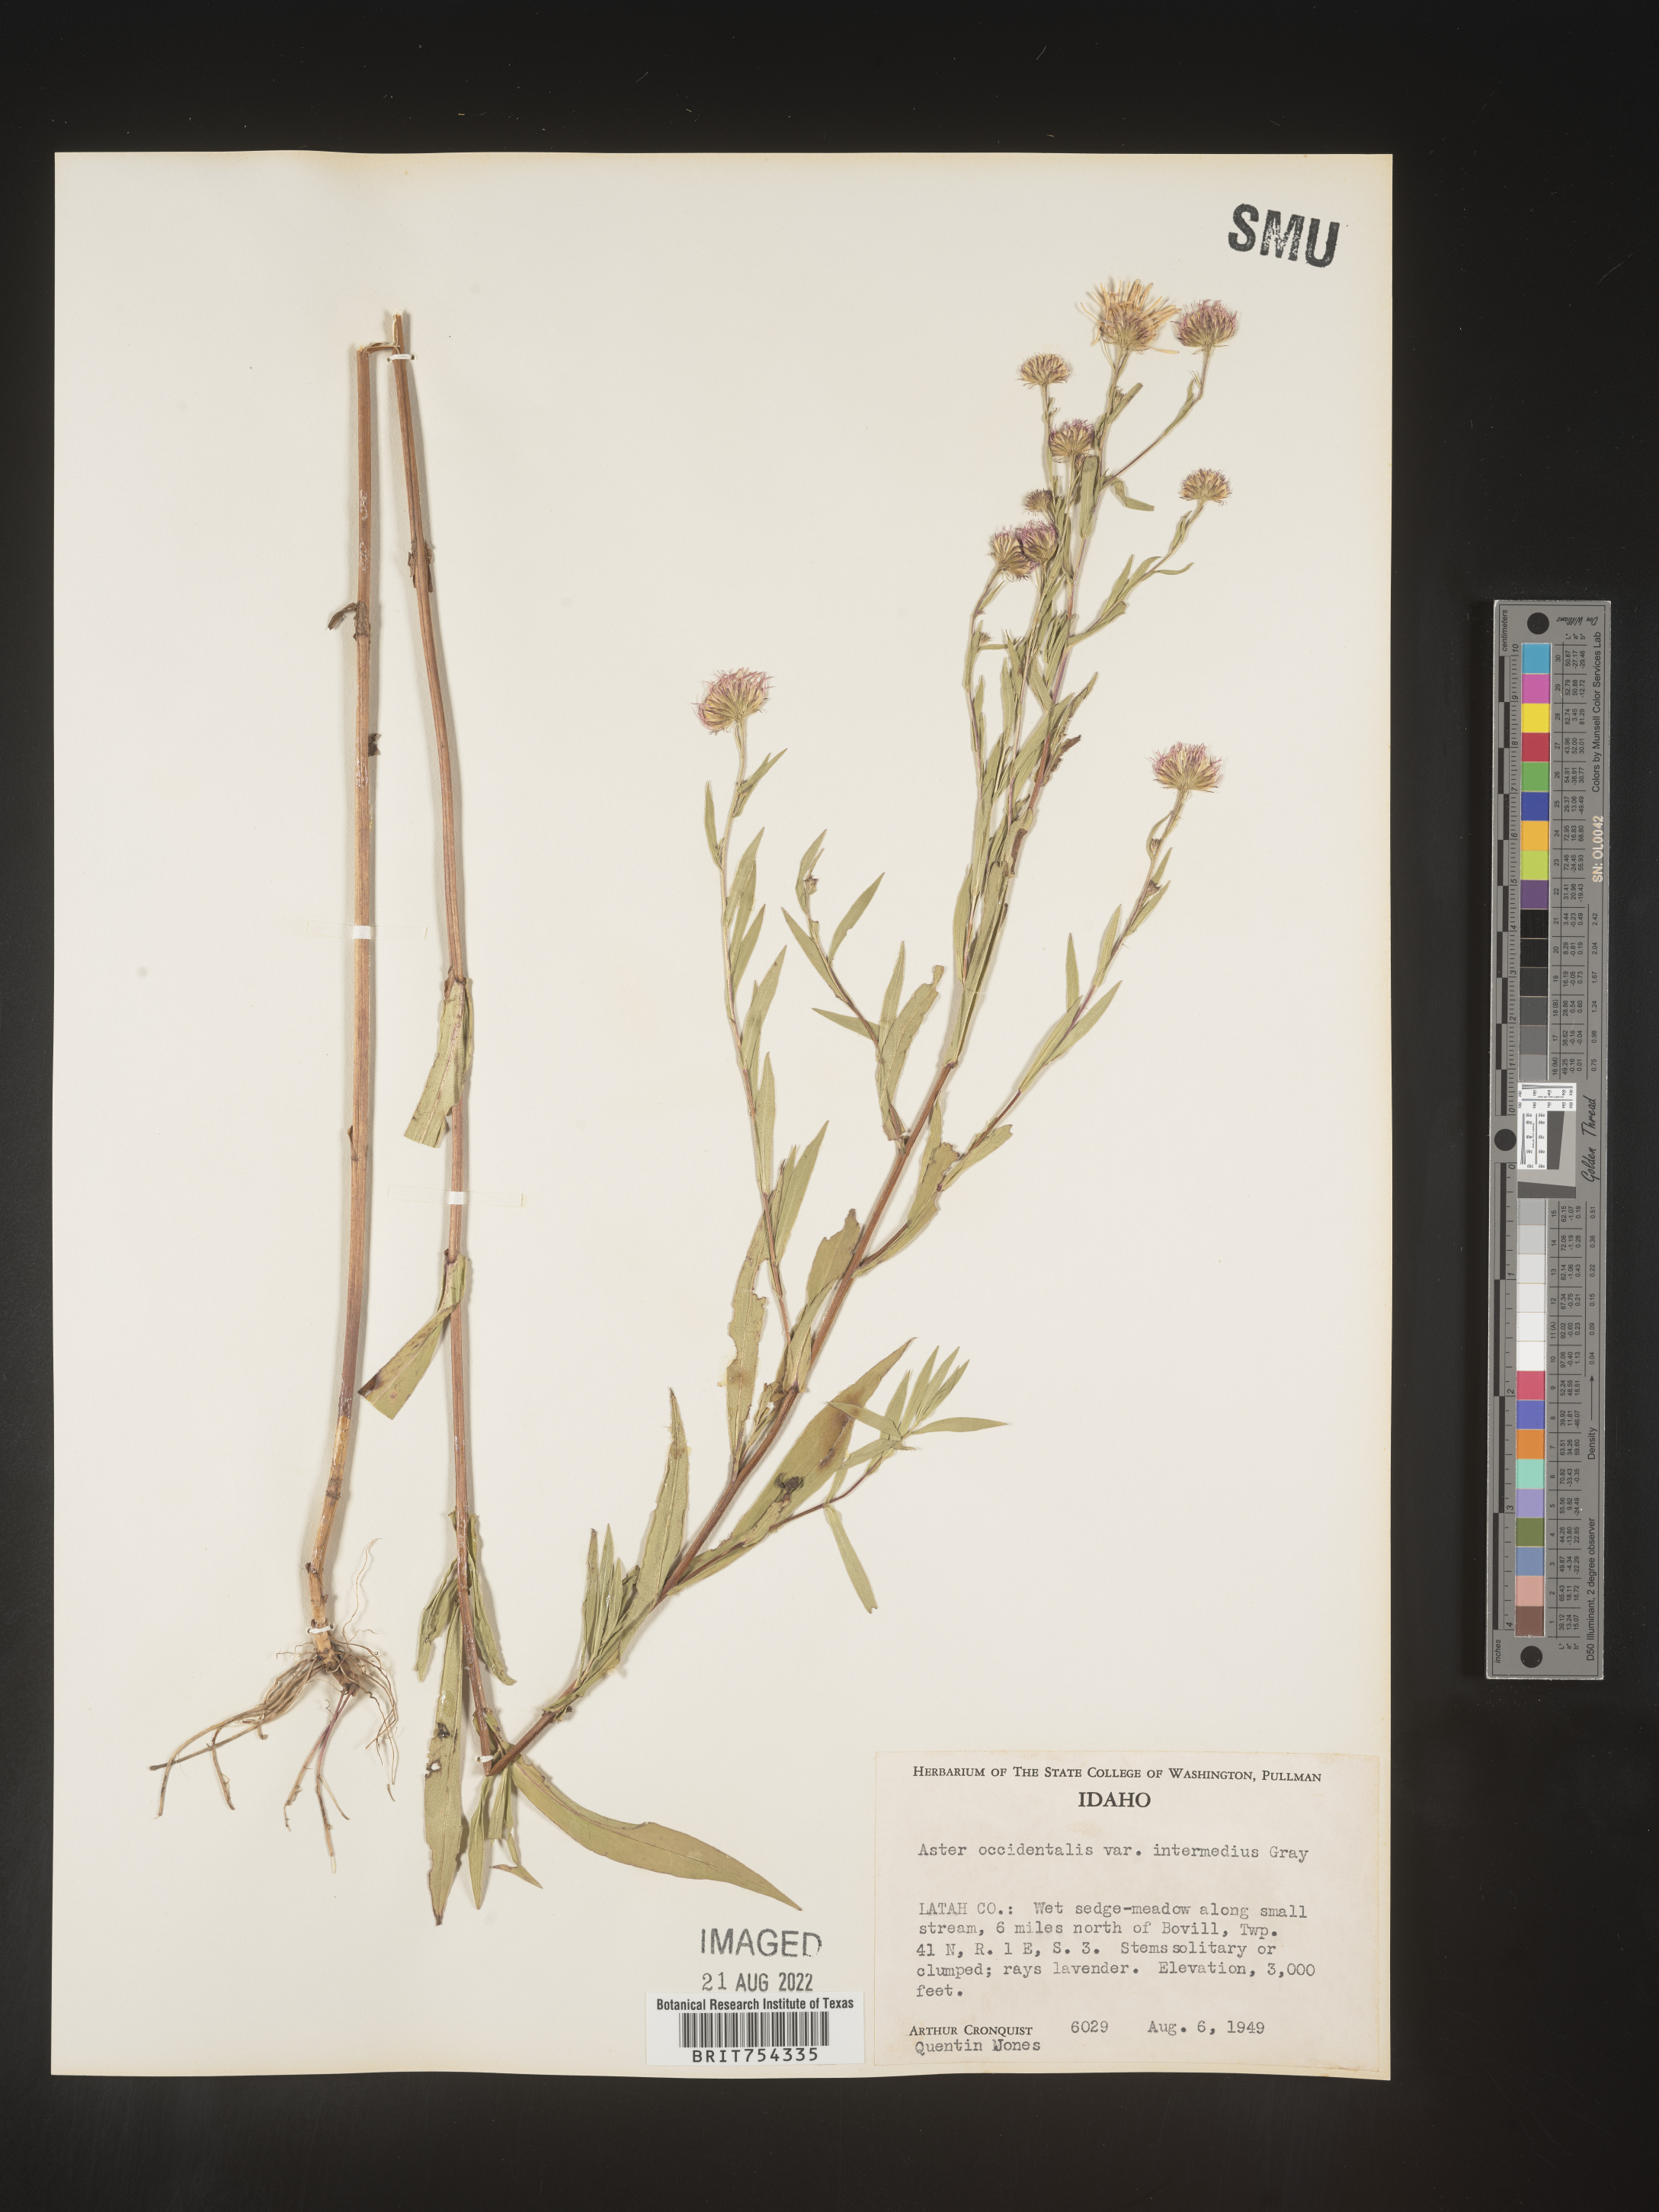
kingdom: Plantae
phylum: Tracheophyta
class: Magnoliopsida
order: Asterales
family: Asteraceae
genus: Symphyotrichum
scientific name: Symphyotrichum spathulatum
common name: Western mountain aster
